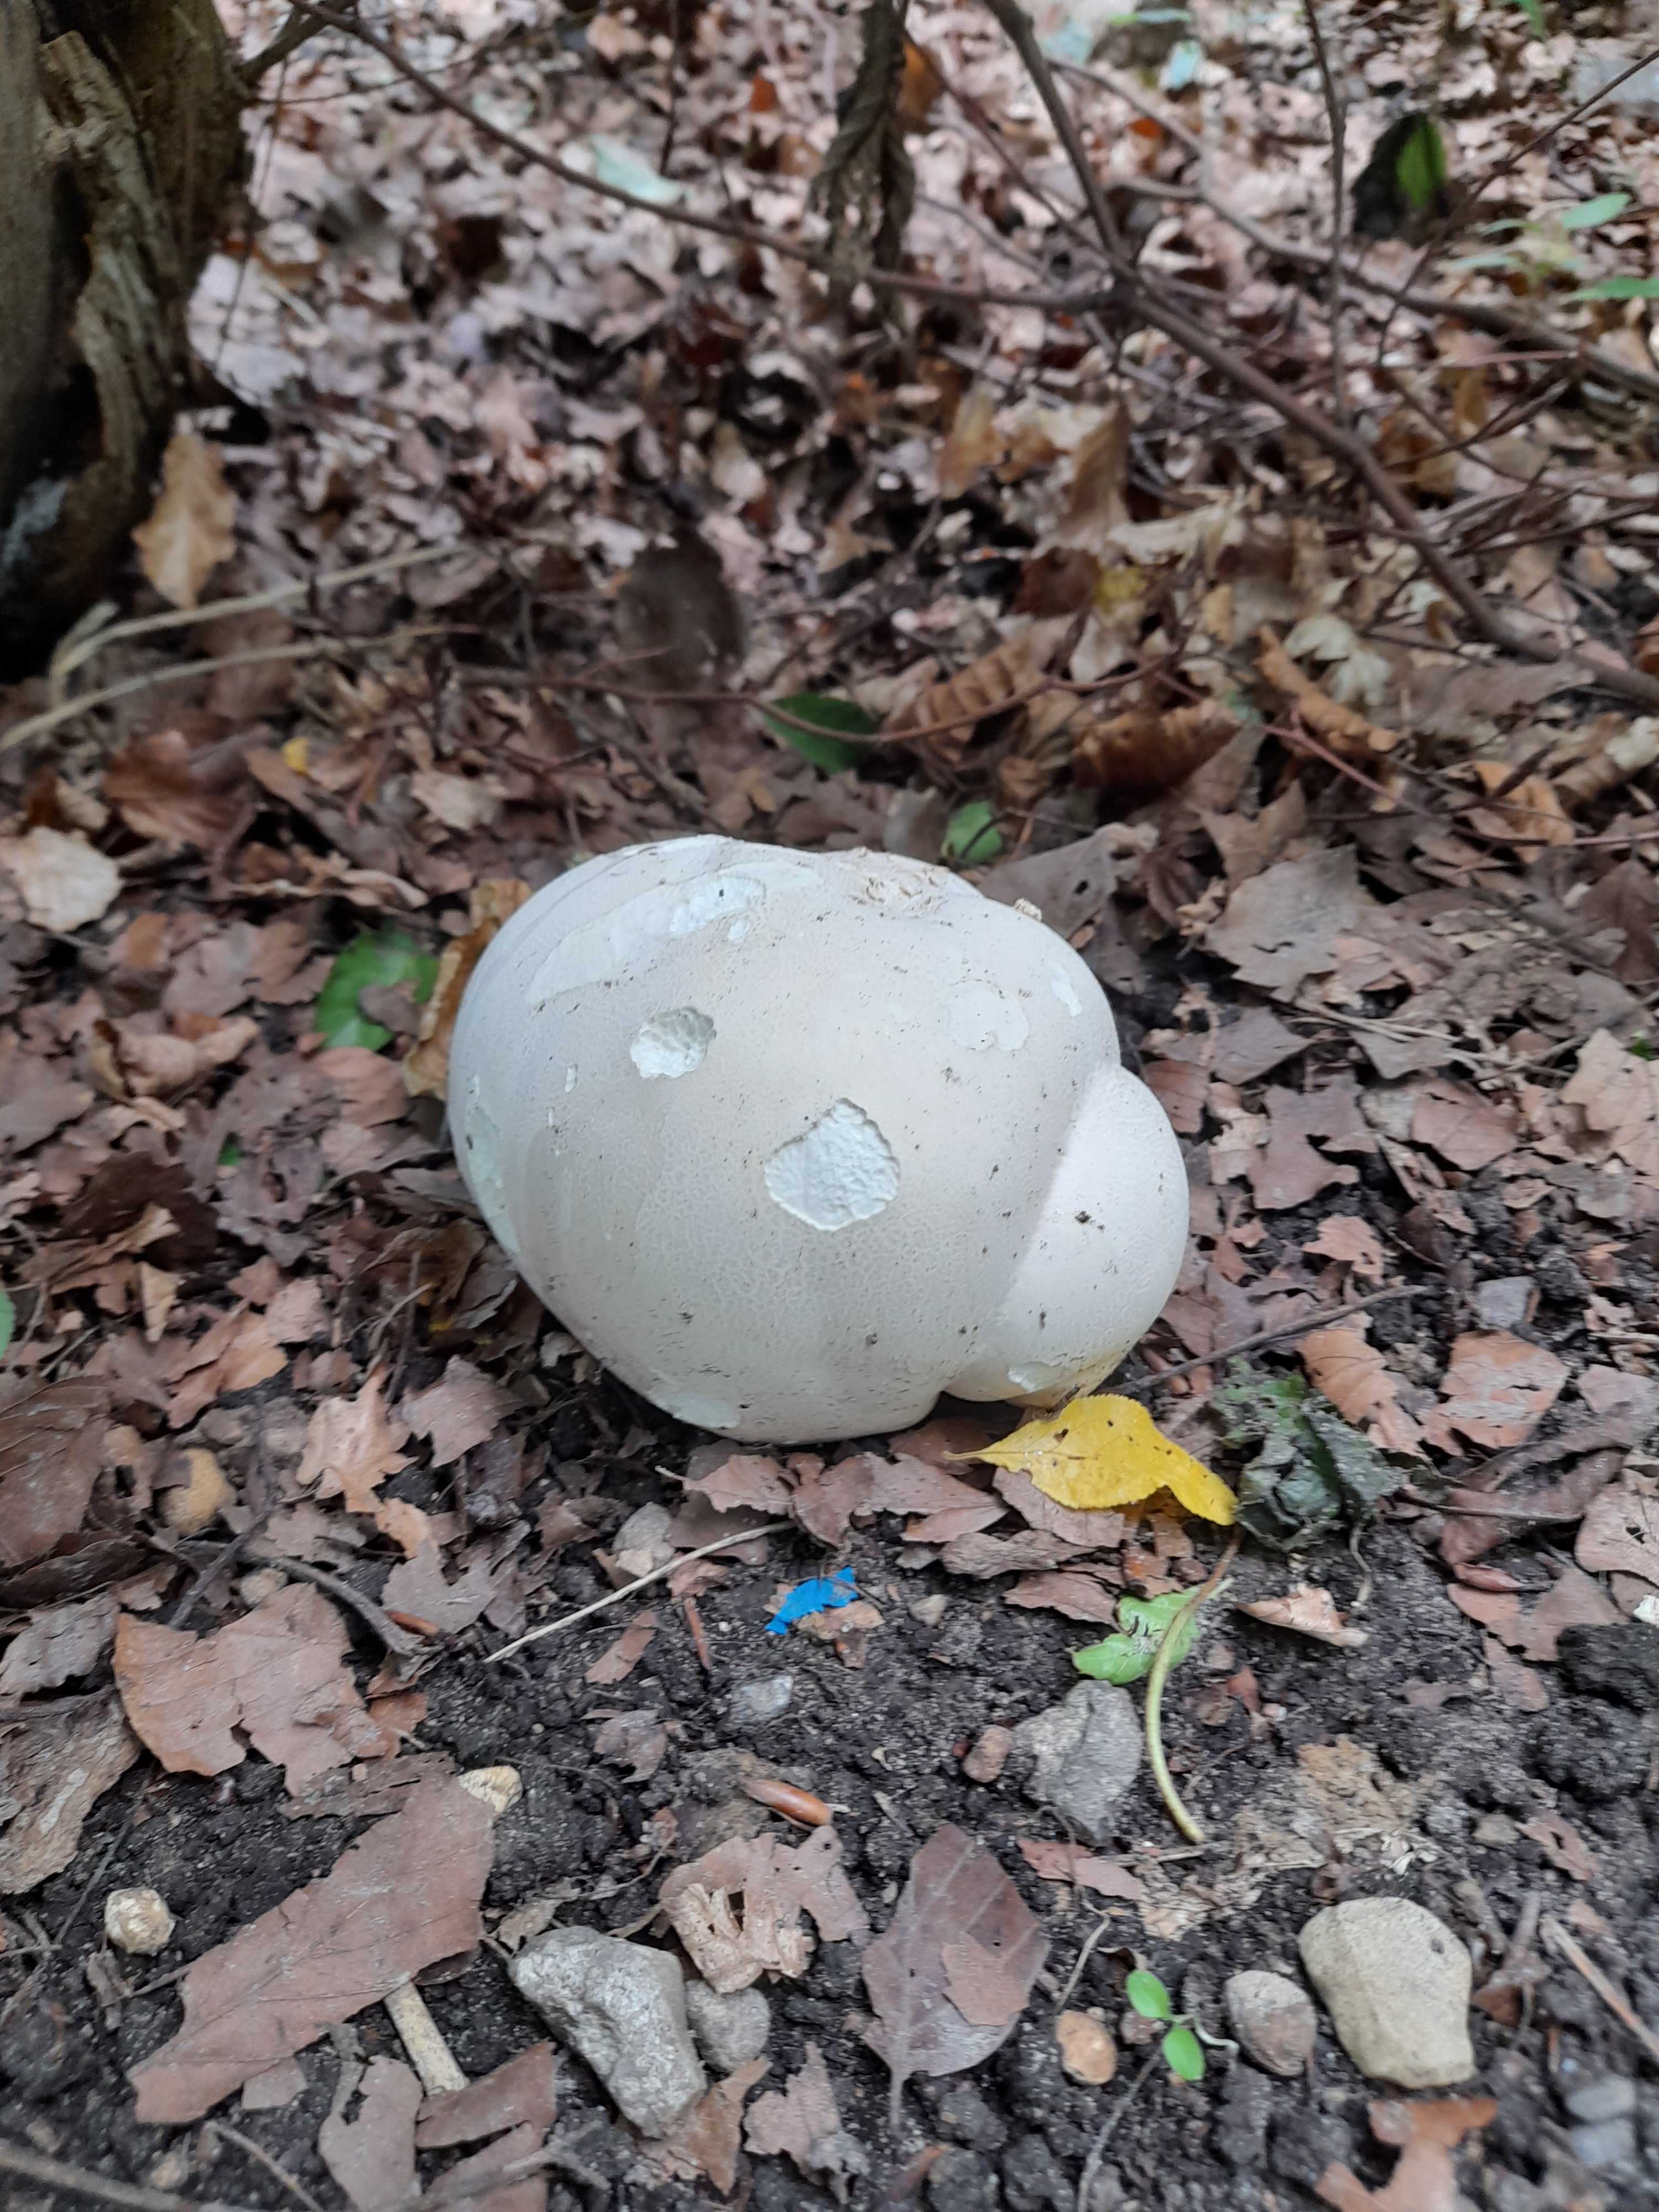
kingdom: Fungi
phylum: Basidiomycota
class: Agaricomycetes
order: Agaricales
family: Lycoperdaceae
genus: Calvatia
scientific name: Calvatia gigantea
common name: kæmpestøvbold
